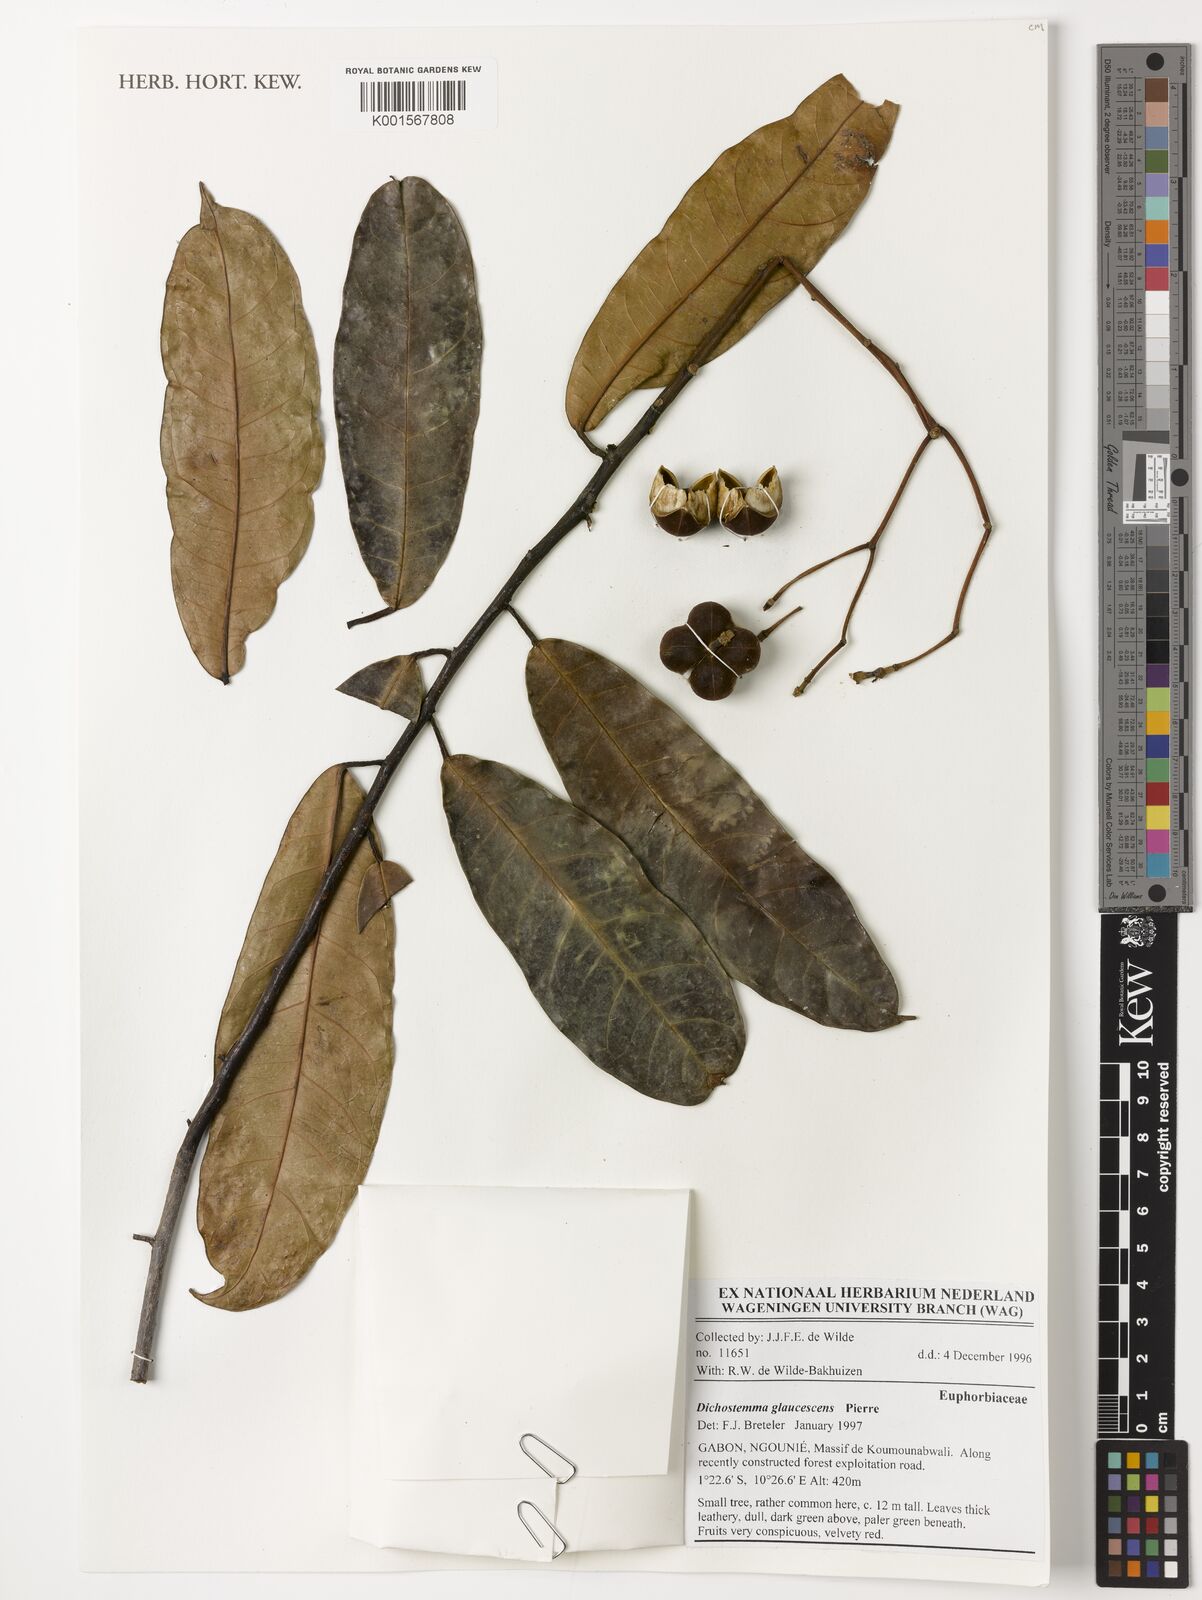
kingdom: Plantae
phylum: Tracheophyta
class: Magnoliopsida
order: Malpighiales
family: Euphorbiaceae
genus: Dichostemma
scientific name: Dichostemma glaucescens
